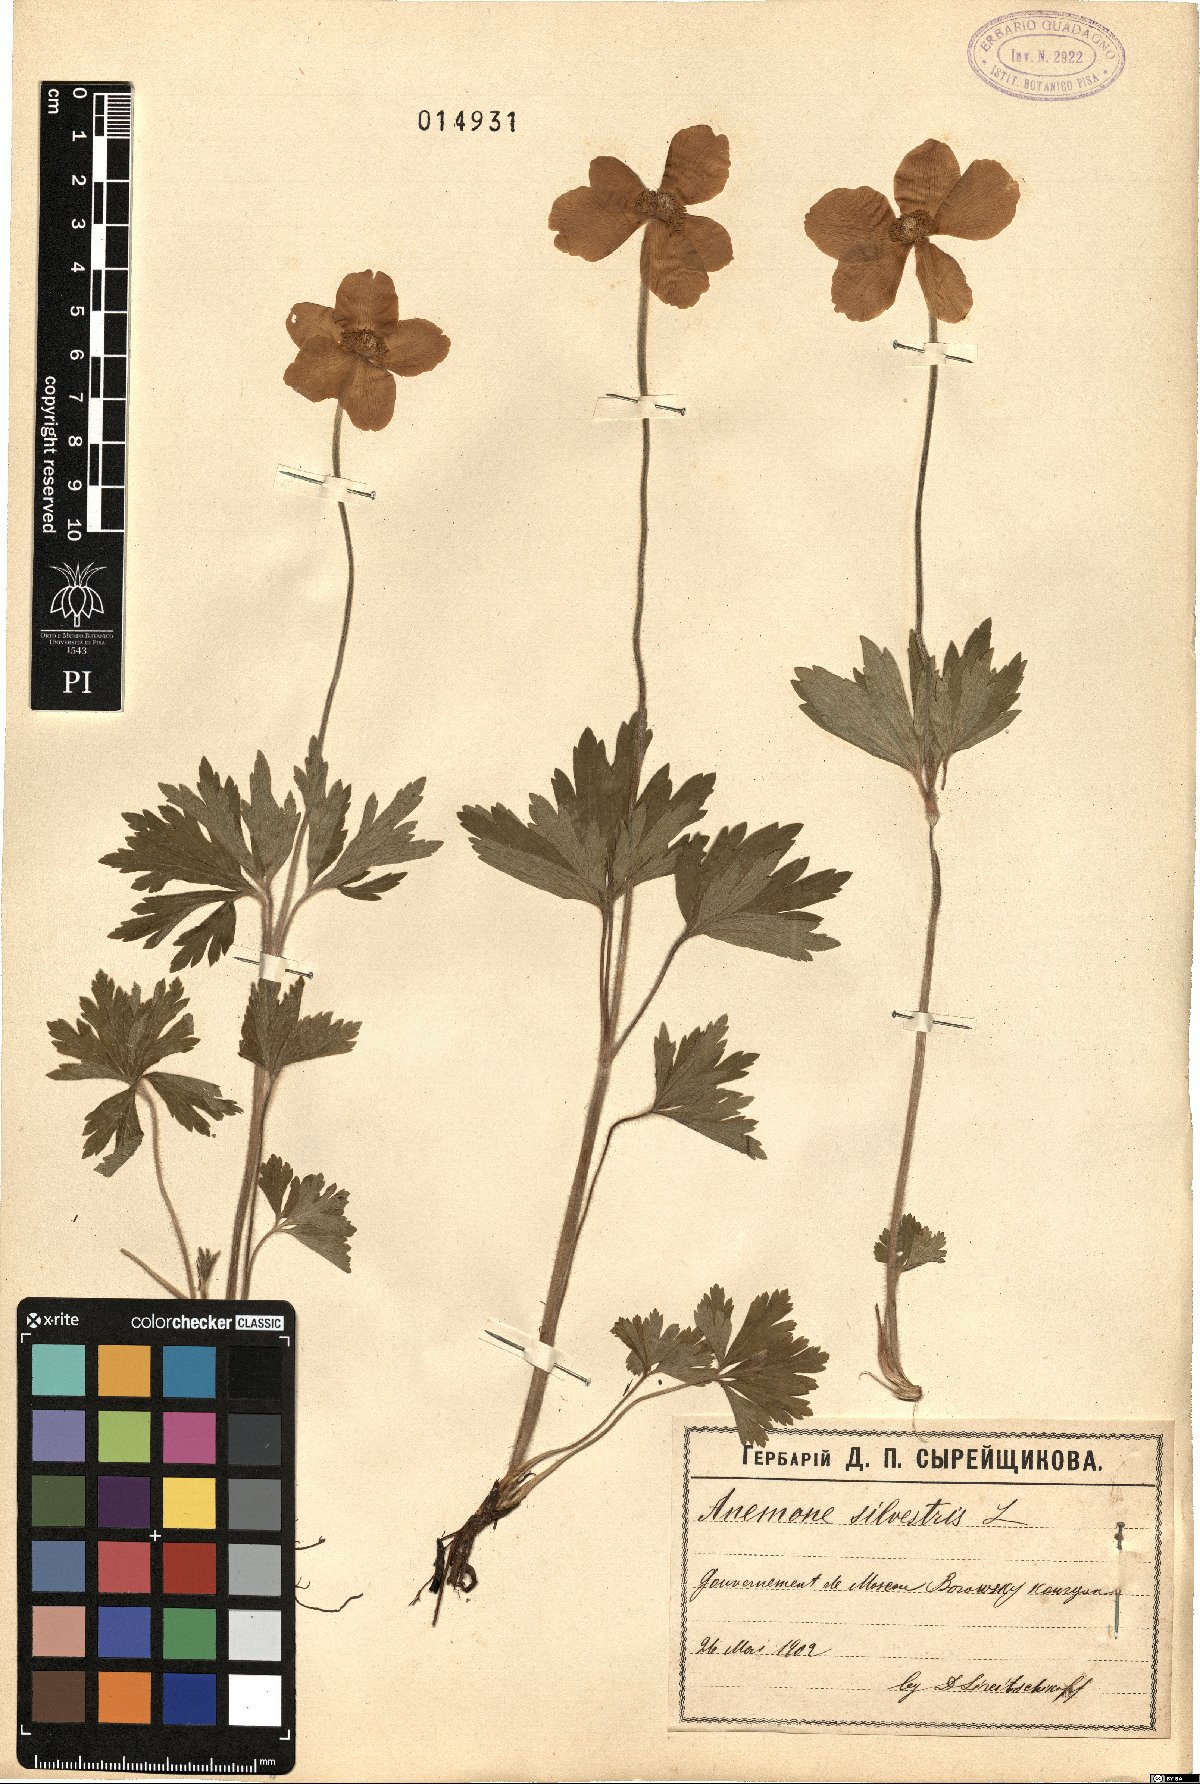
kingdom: Plantae
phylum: Tracheophyta
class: Magnoliopsida
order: Ranunculales
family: Ranunculaceae
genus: Anemone
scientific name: Anemone sylvestris
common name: Snowdrop anemone
